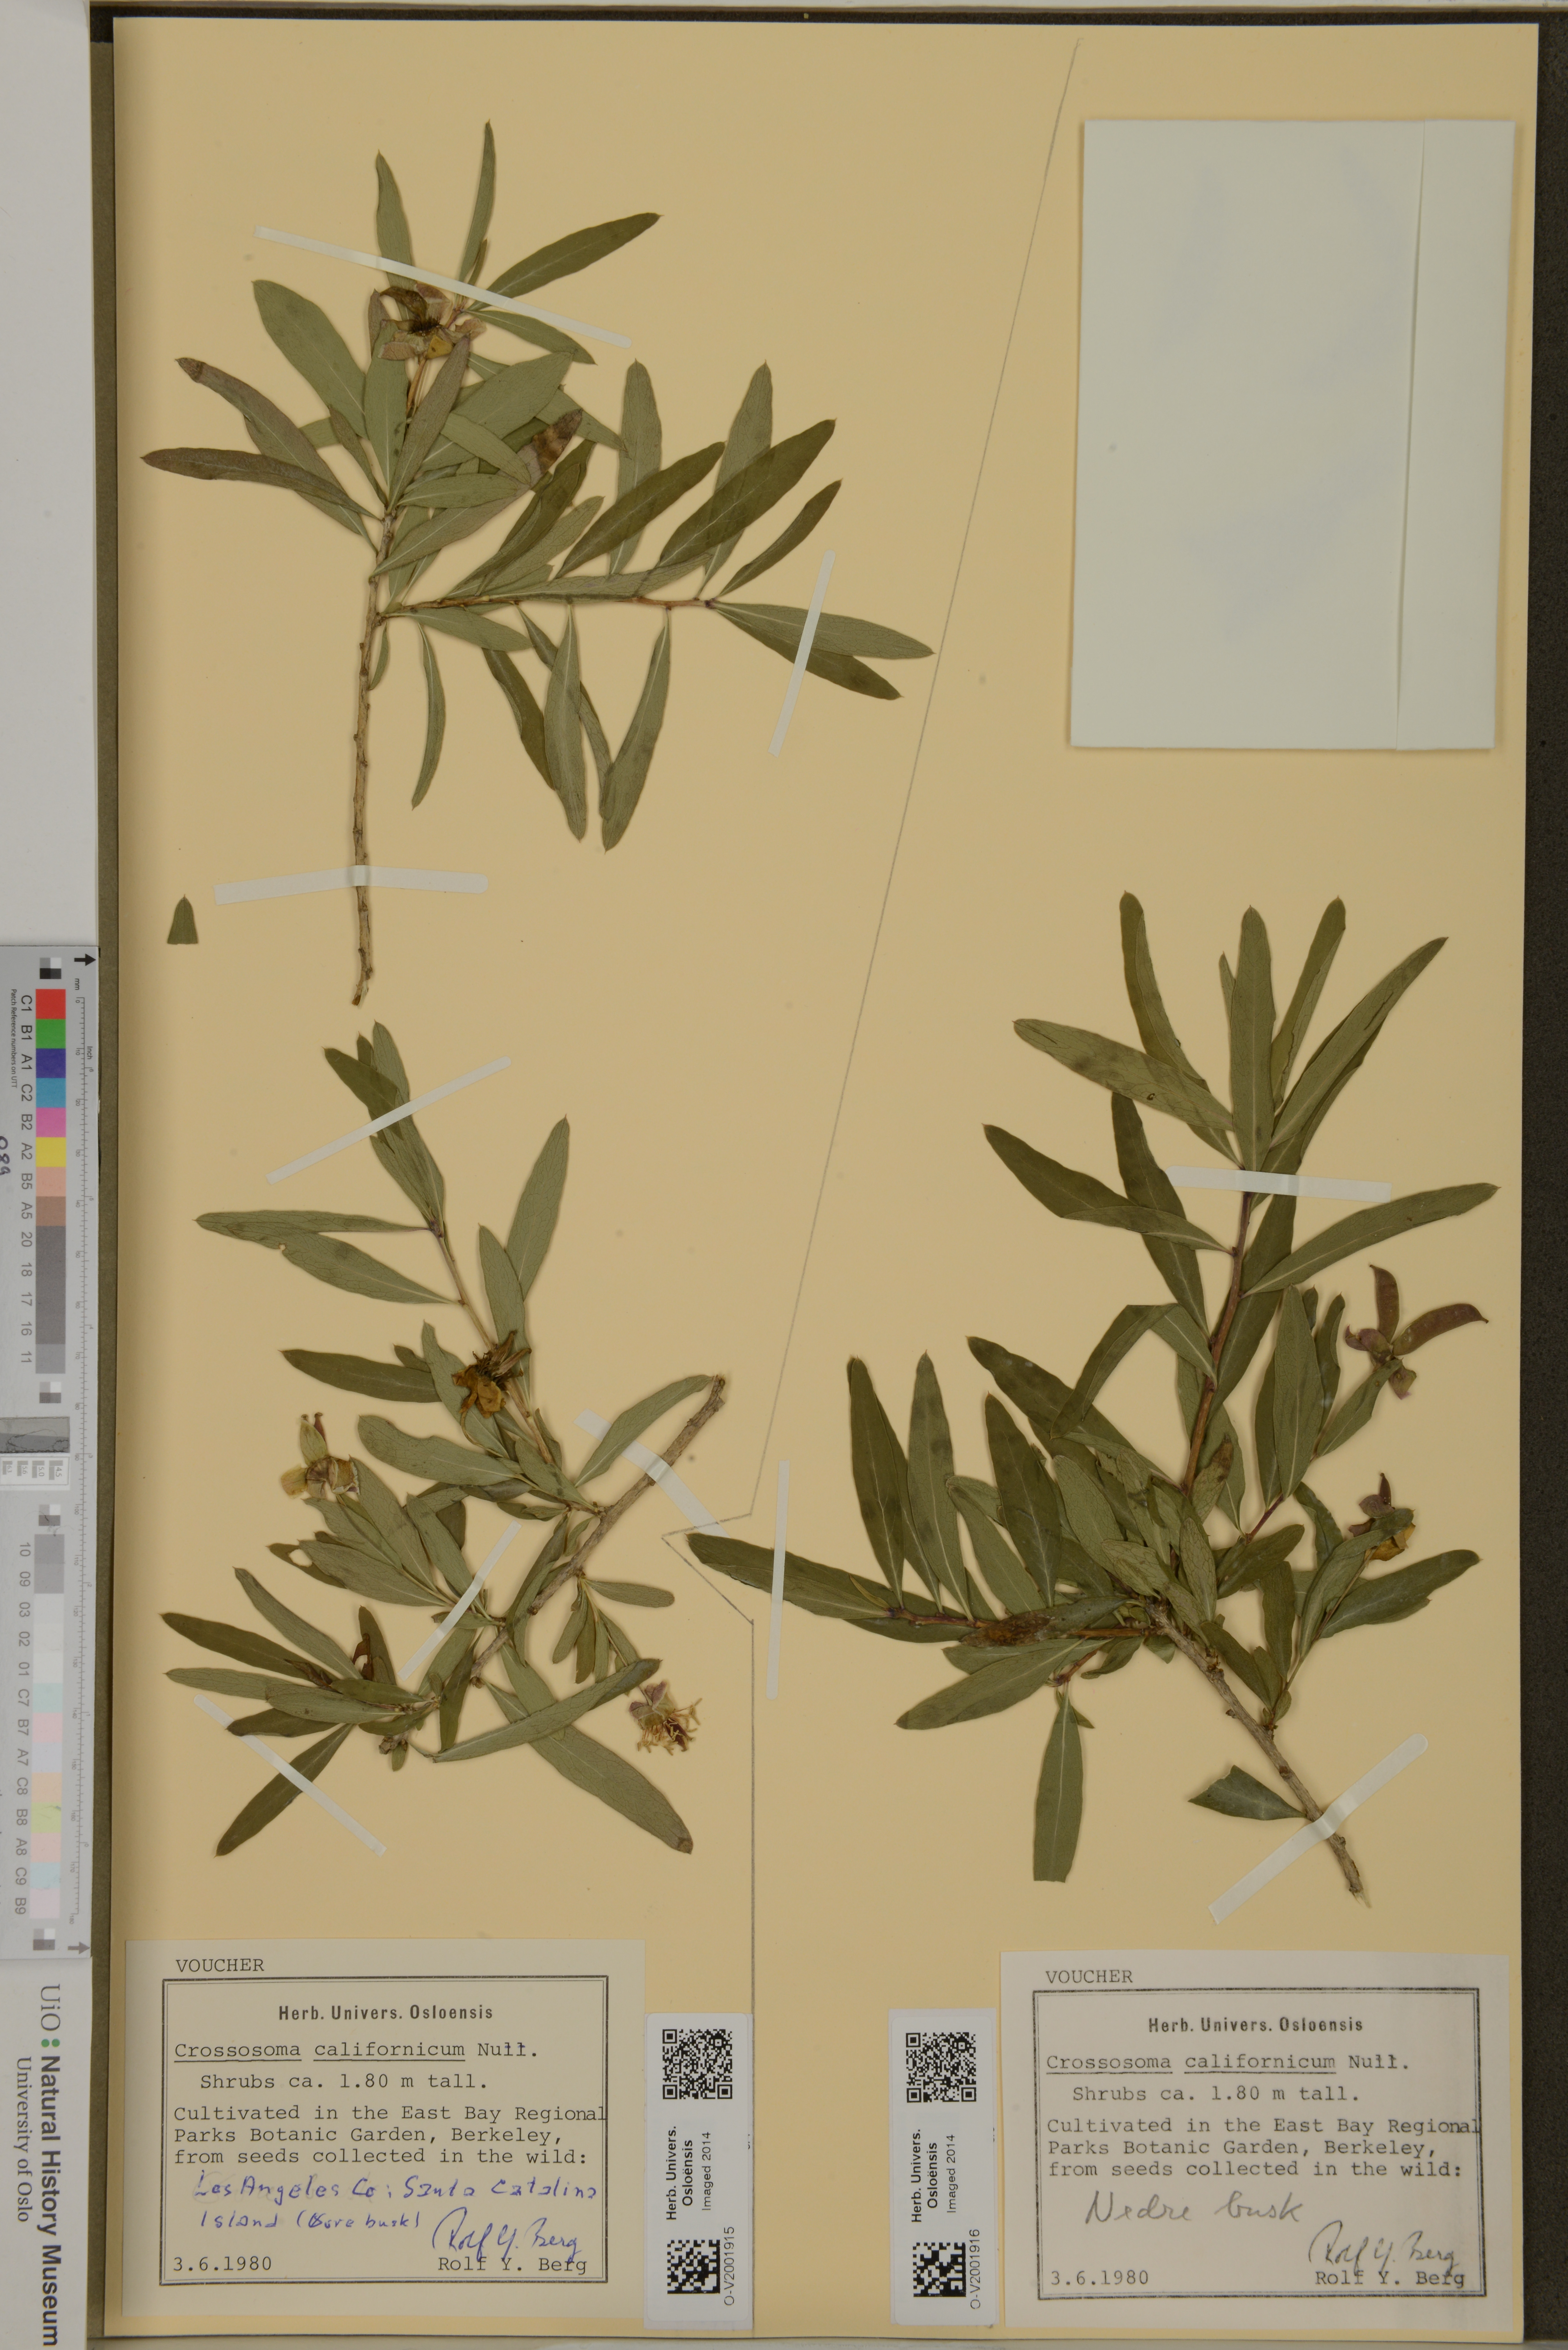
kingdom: Plantae
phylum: Tracheophyta
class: Magnoliopsida
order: Crossosomatales
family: Crossosomataceae
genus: Crossosoma
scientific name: Crossosoma californicum
